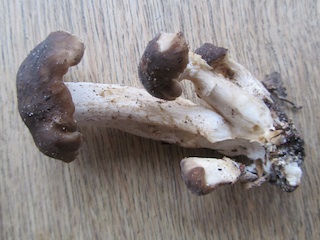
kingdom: Fungi
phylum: Basidiomycota
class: Agaricomycetes
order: Agaricales
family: Lyophyllaceae
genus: Lyophyllum
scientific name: Lyophyllum decastes
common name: røggrå gråblad
